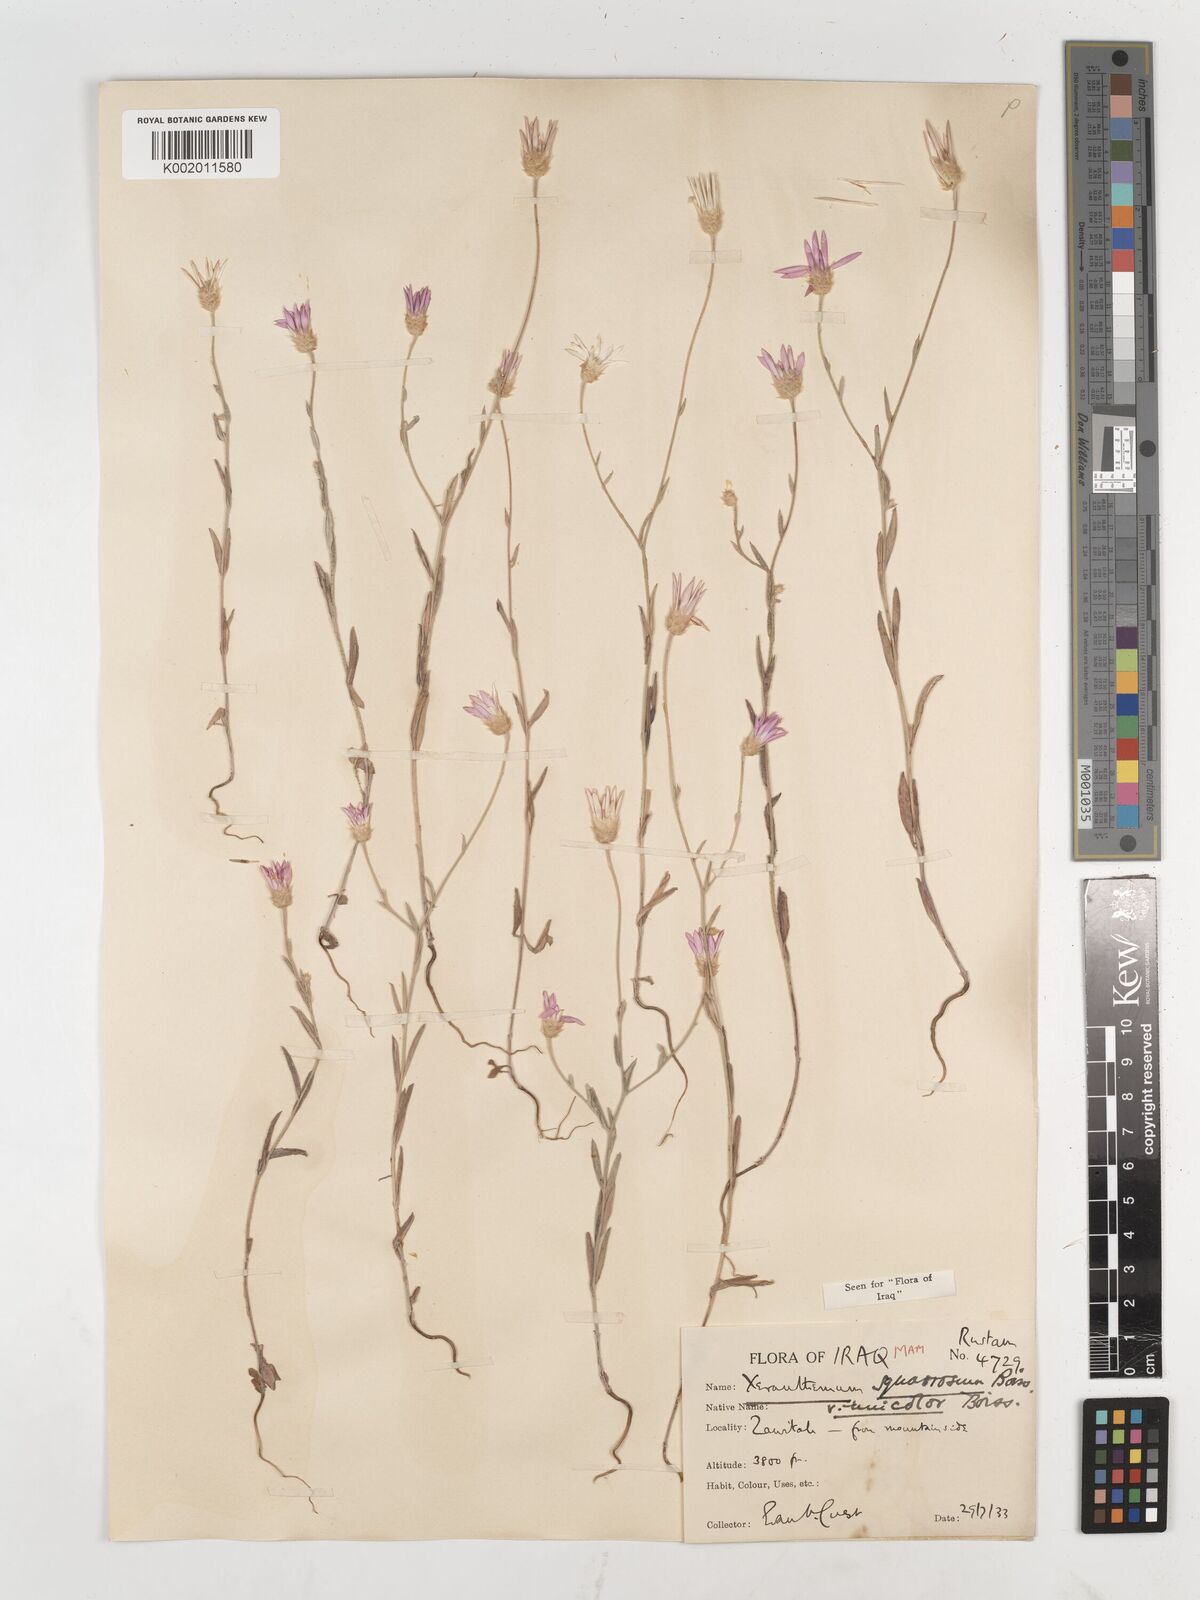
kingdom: Plantae
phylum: Tracheophyta
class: Magnoliopsida
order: Asterales
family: Asteraceae
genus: Xeranthemum
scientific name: Xeranthemum annuum
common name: Immortelle
